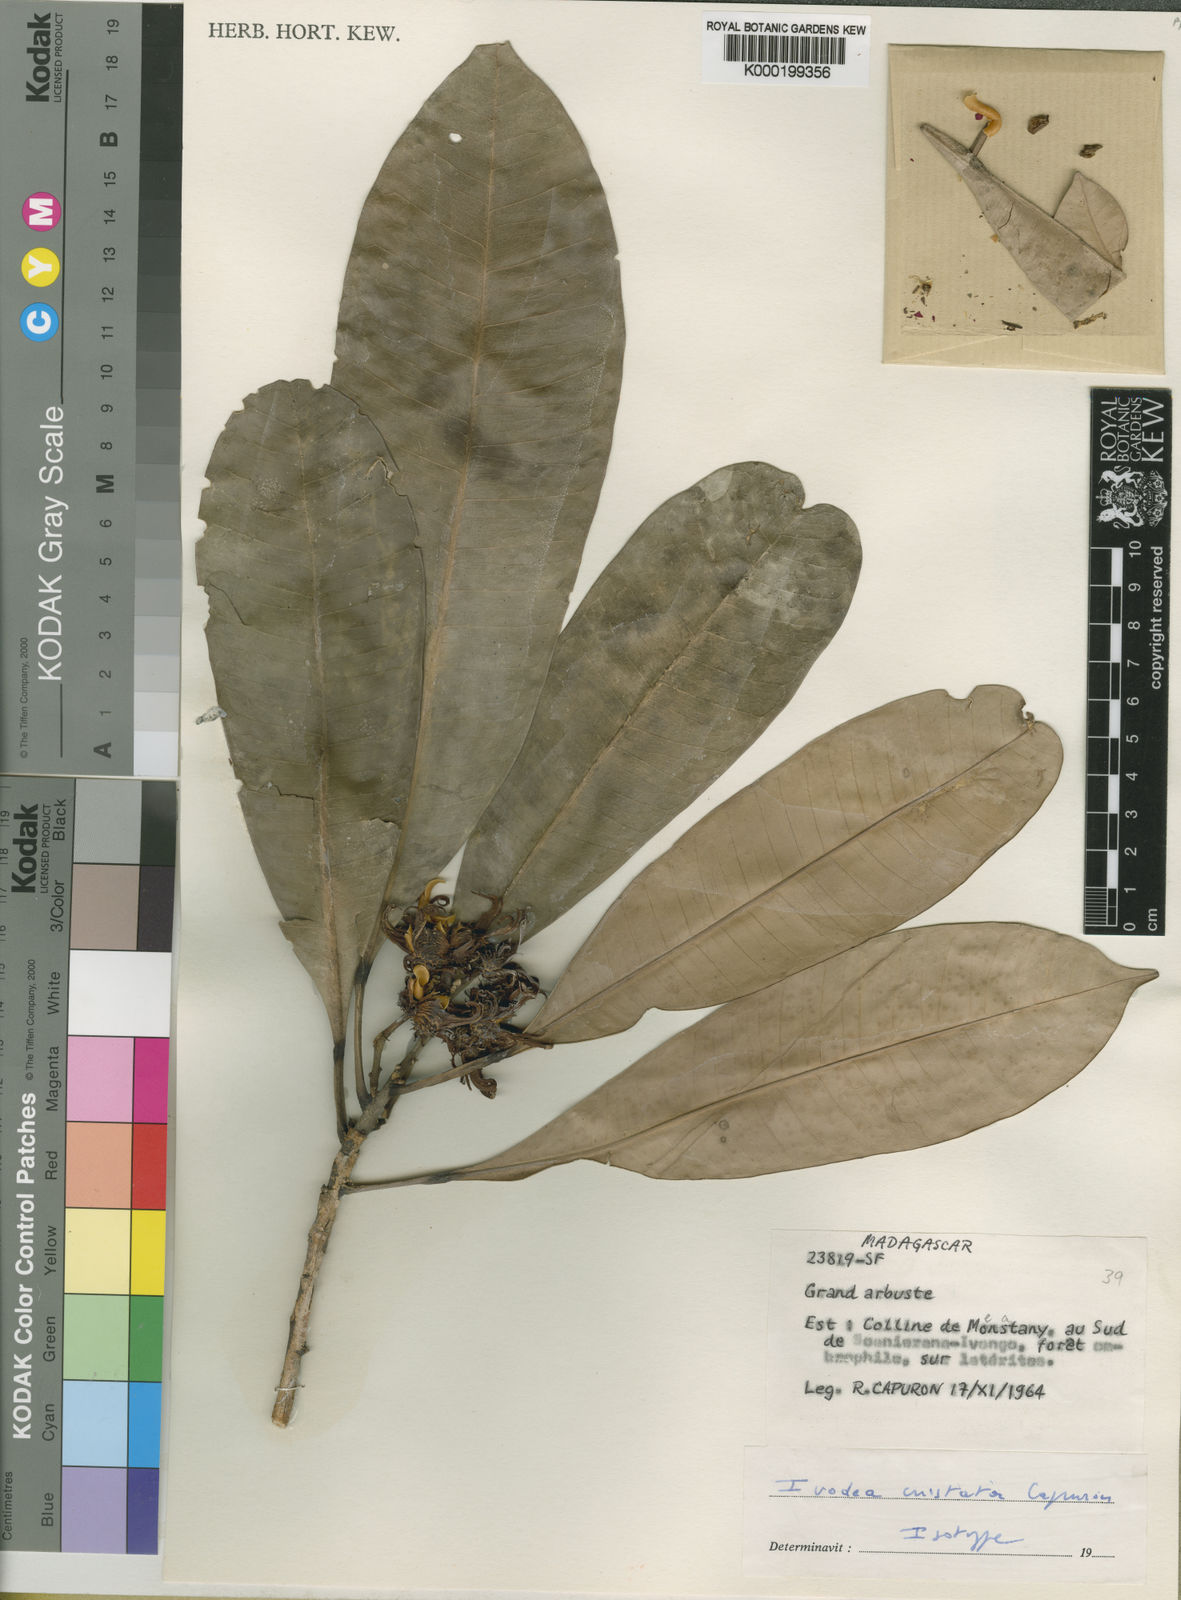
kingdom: Plantae
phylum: Tracheophyta
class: Magnoliopsida
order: Sapindales
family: Rutaceae
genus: Ivodea
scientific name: Ivodea cristata
